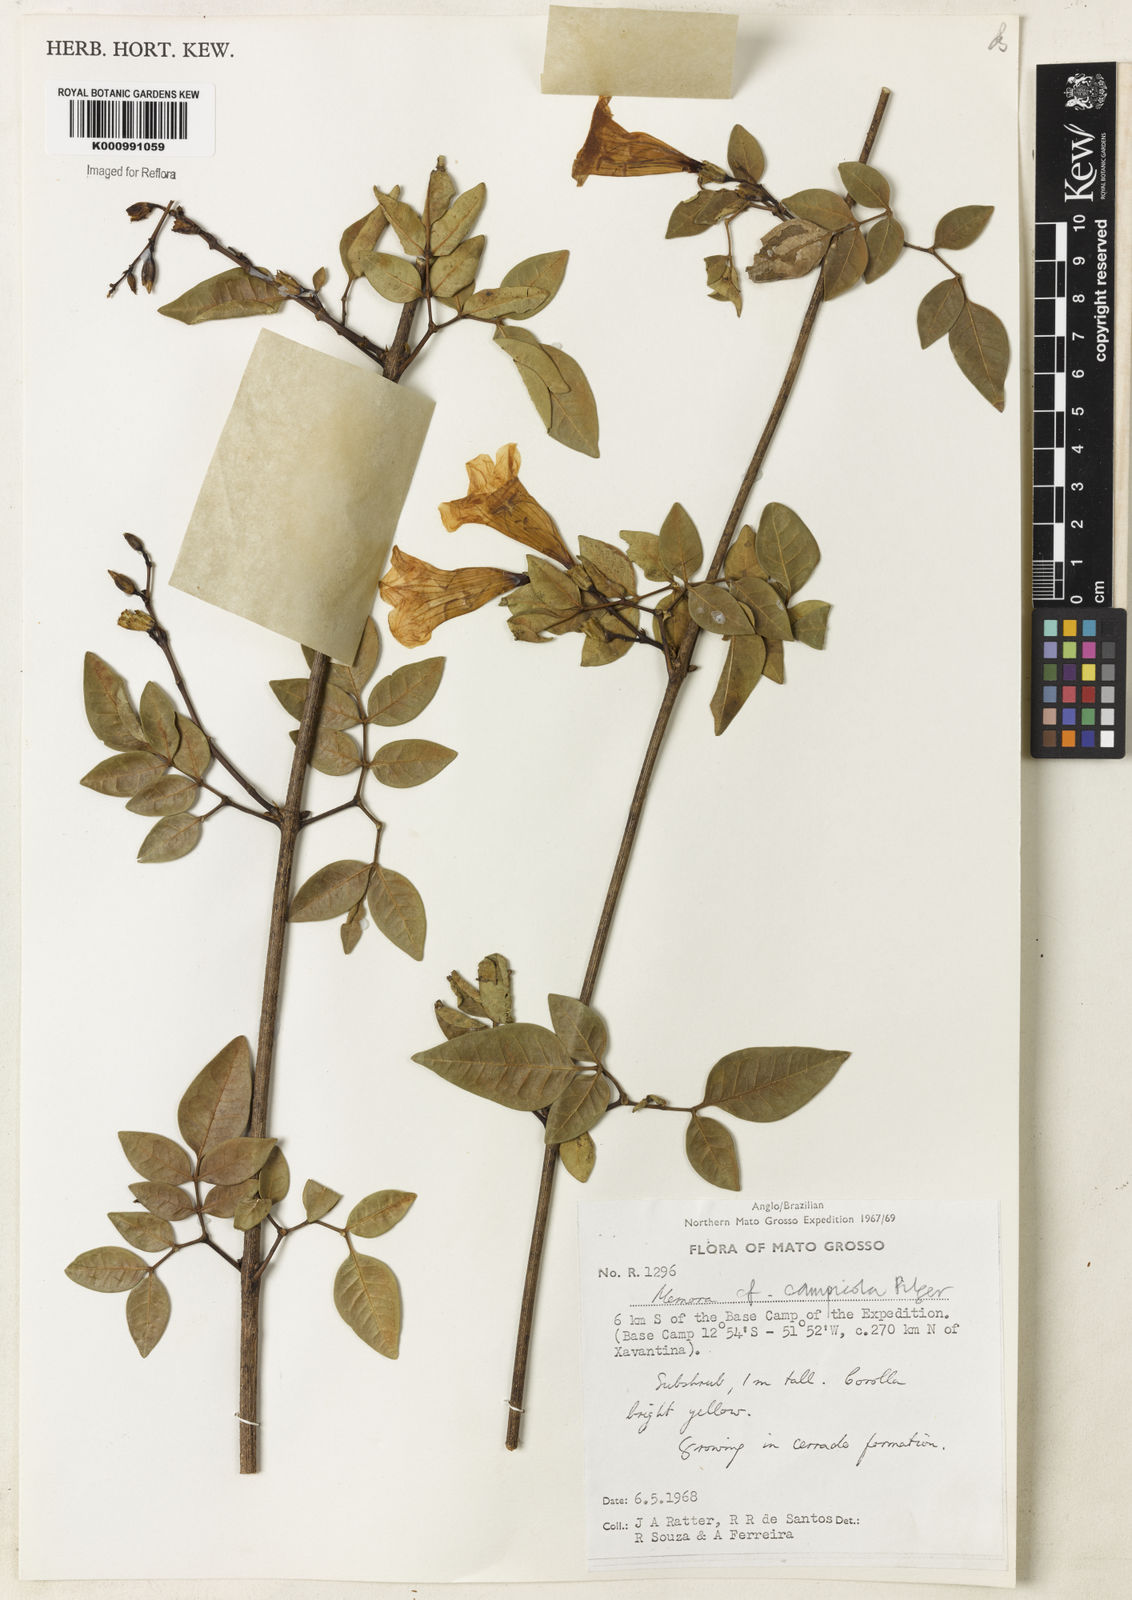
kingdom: Plantae
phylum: Tracheophyta
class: Magnoliopsida
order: Lamiales
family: Bignoniaceae
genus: Adenocalymma
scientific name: Adenocalymma campicola
